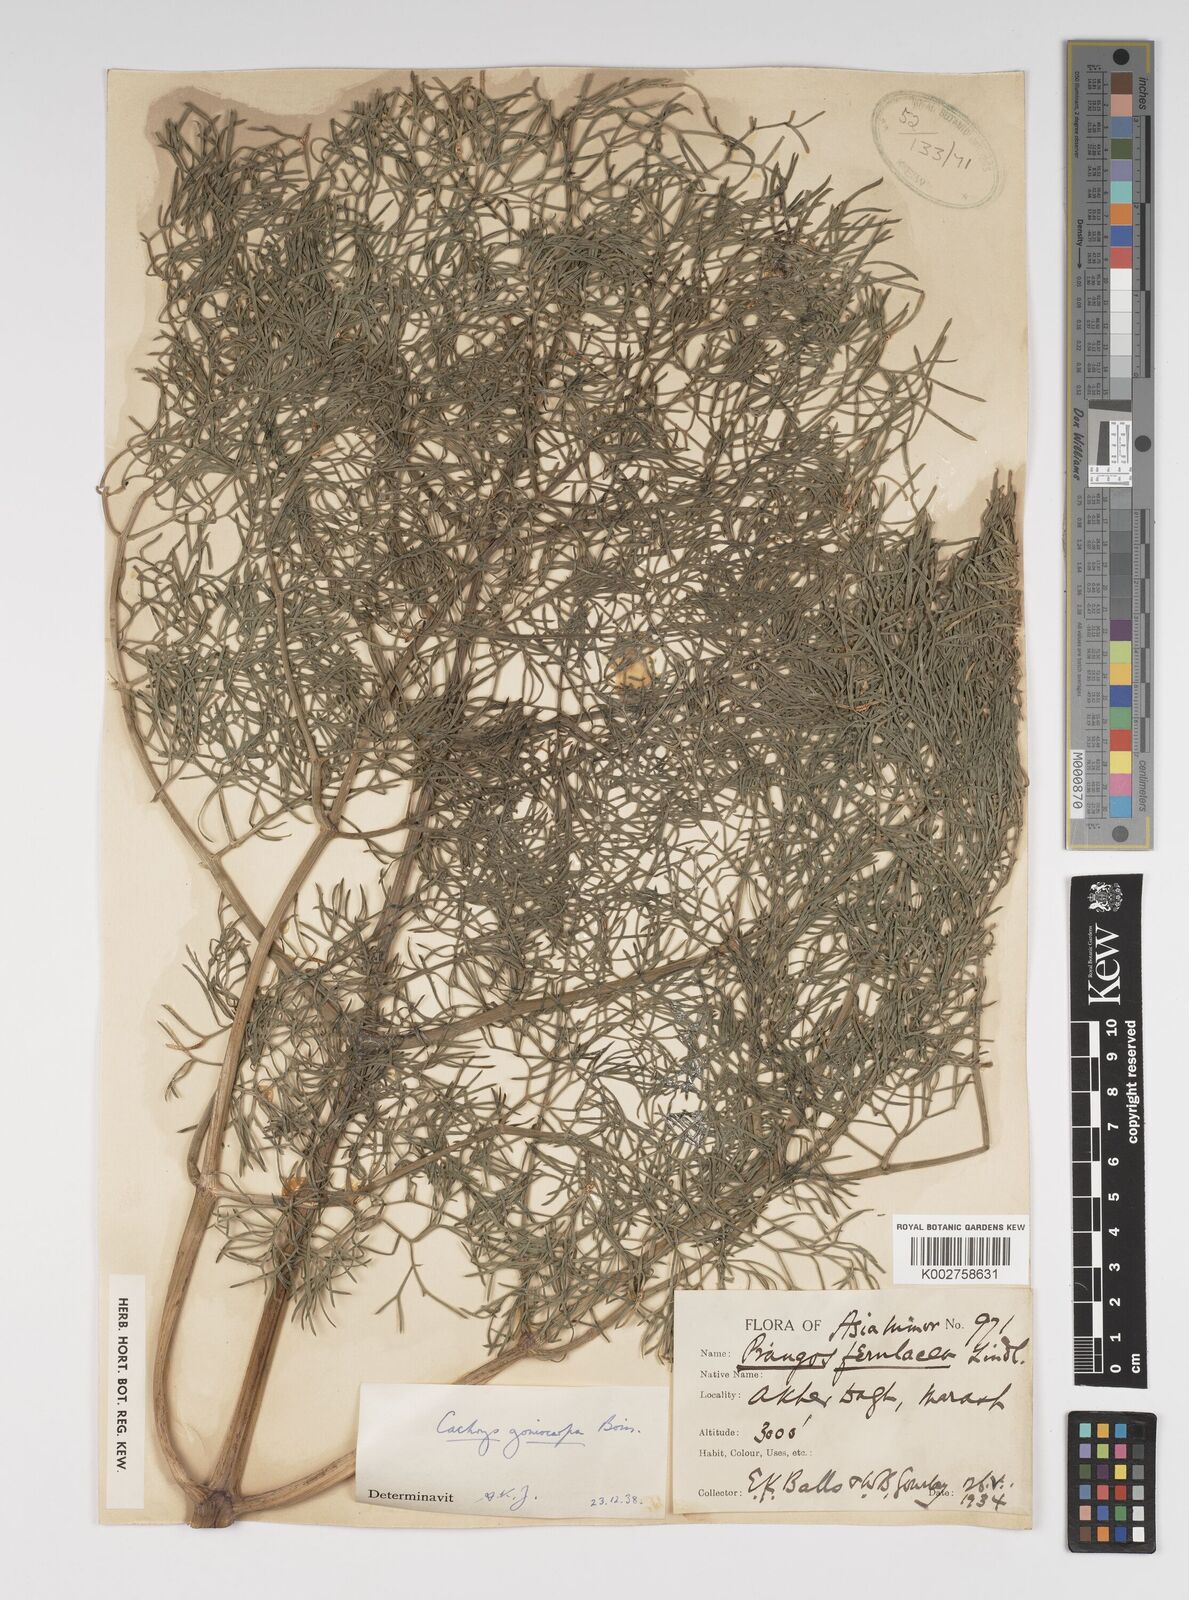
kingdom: Plantae
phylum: Tracheophyta
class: Magnoliopsida
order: Apiales
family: Apiaceae
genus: Prangos
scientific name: Prangos ferulacea
